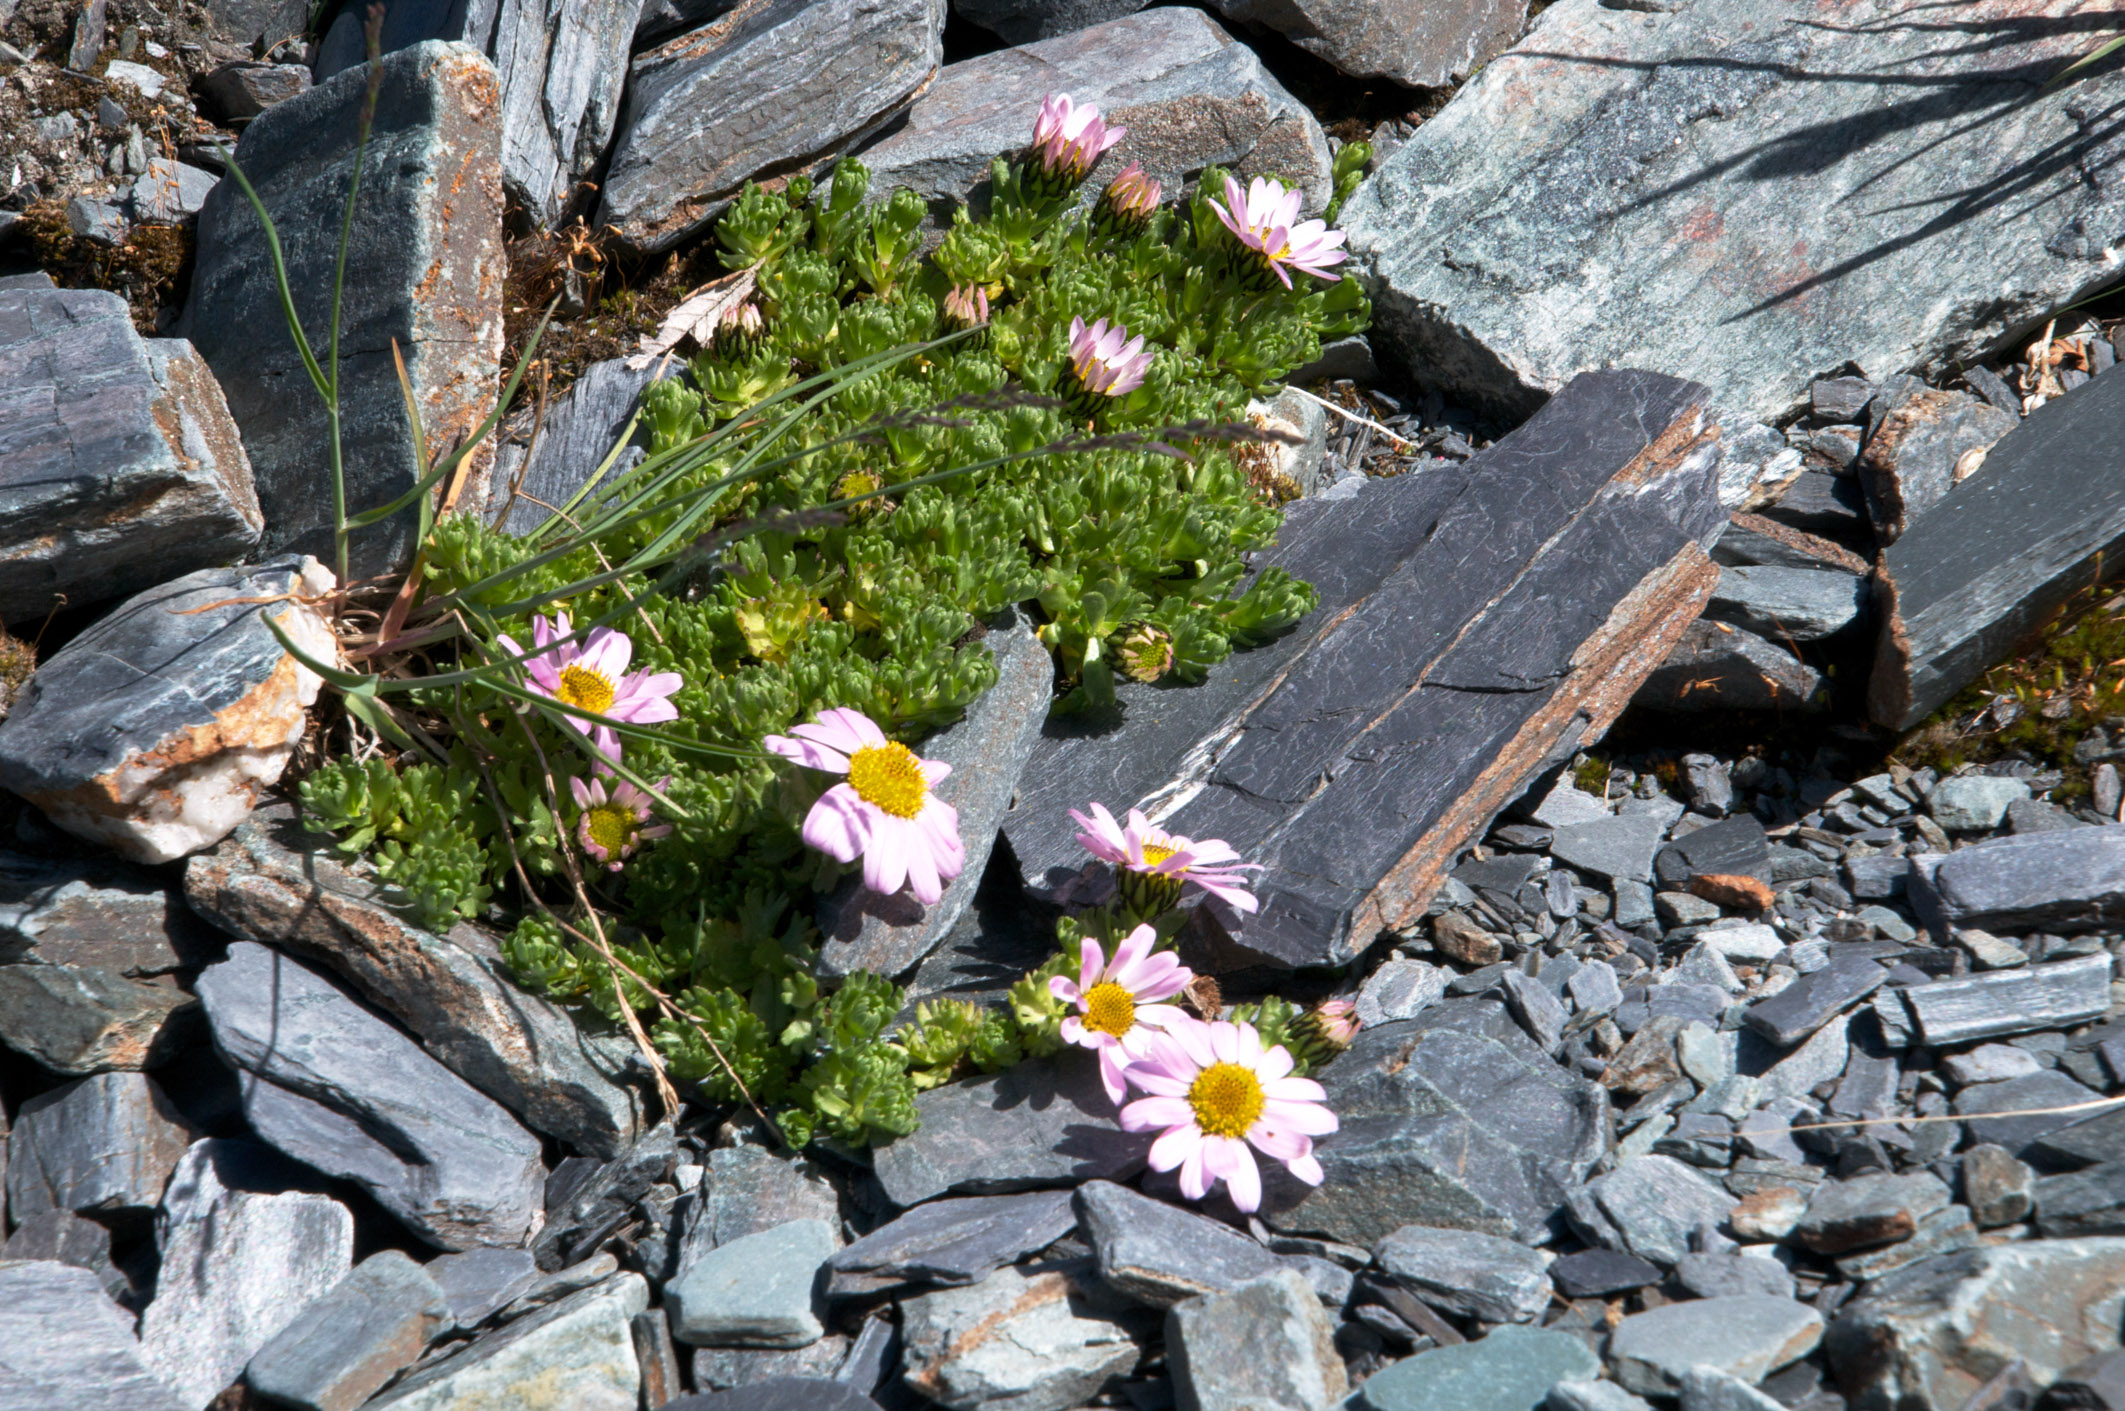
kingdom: Plantae
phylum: Tracheophyta
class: Magnoliopsida
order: Asterales
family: Asteraceae
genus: Allardia
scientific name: Allardia tridactylites
